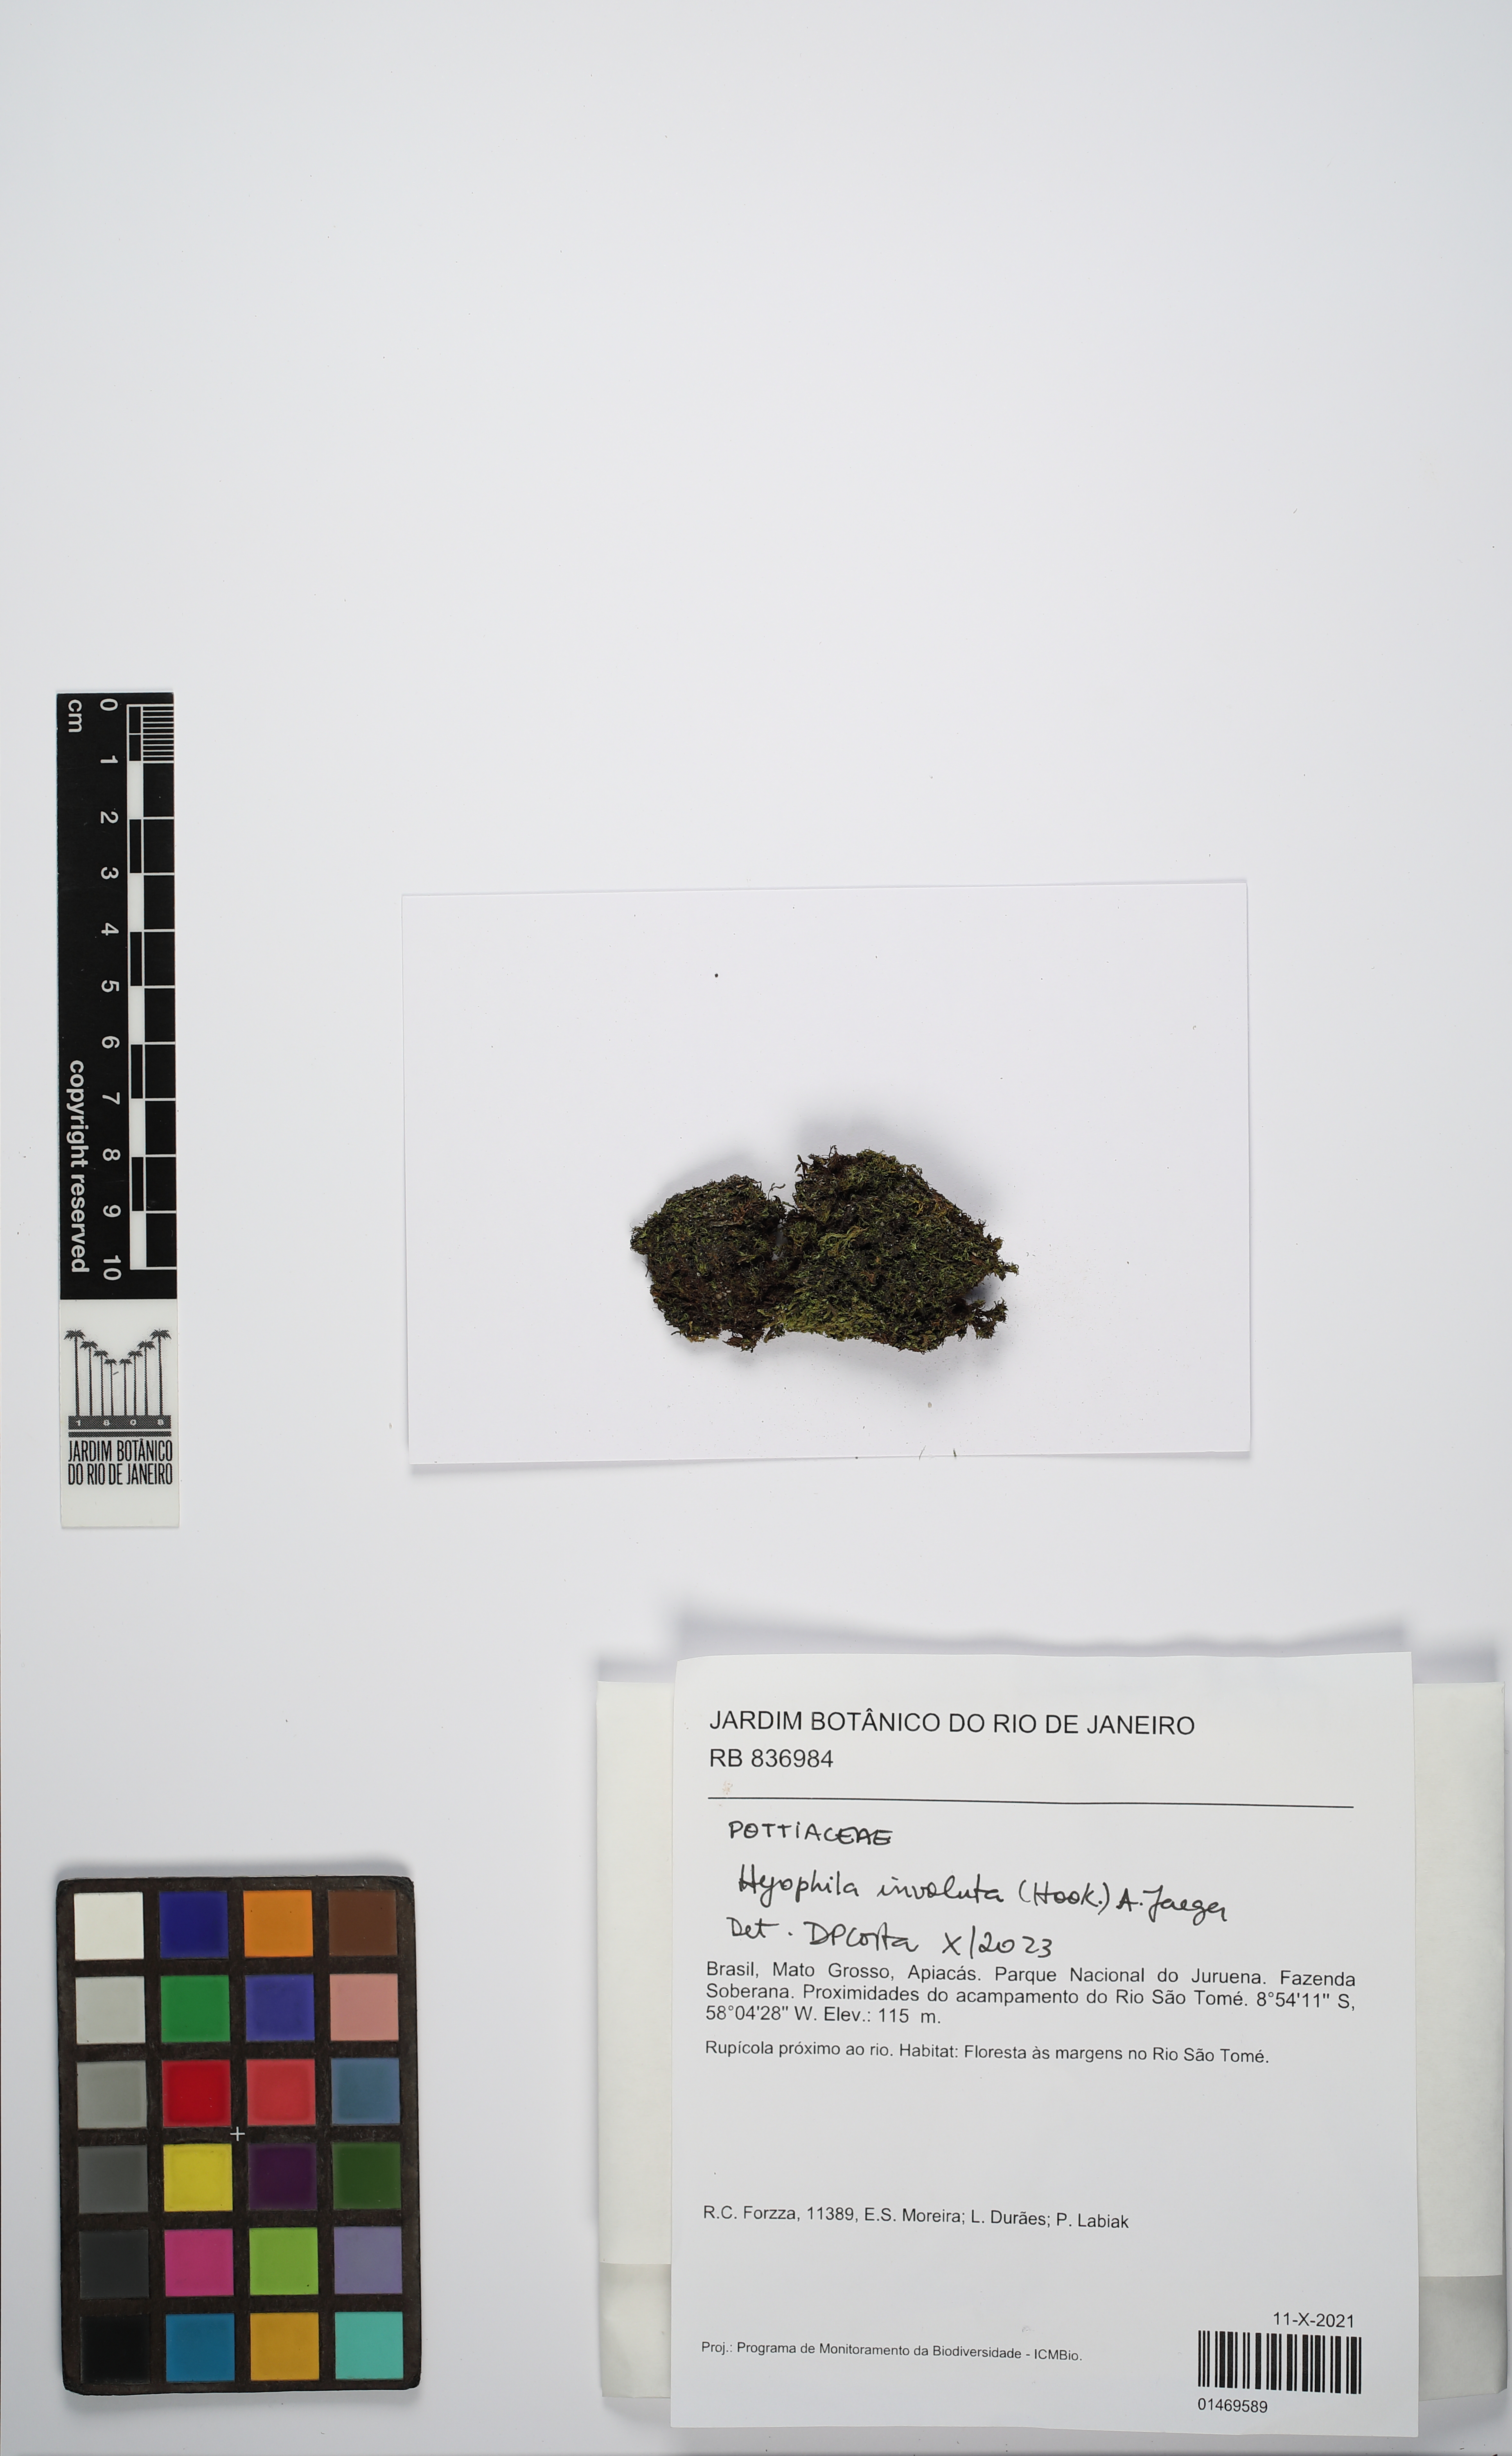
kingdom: Plantae
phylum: Bryophyta
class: Bryopsida
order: Pottiales
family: Pottiaceae
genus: Hyophila
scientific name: Hyophila involuta
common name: Hyophila moss
